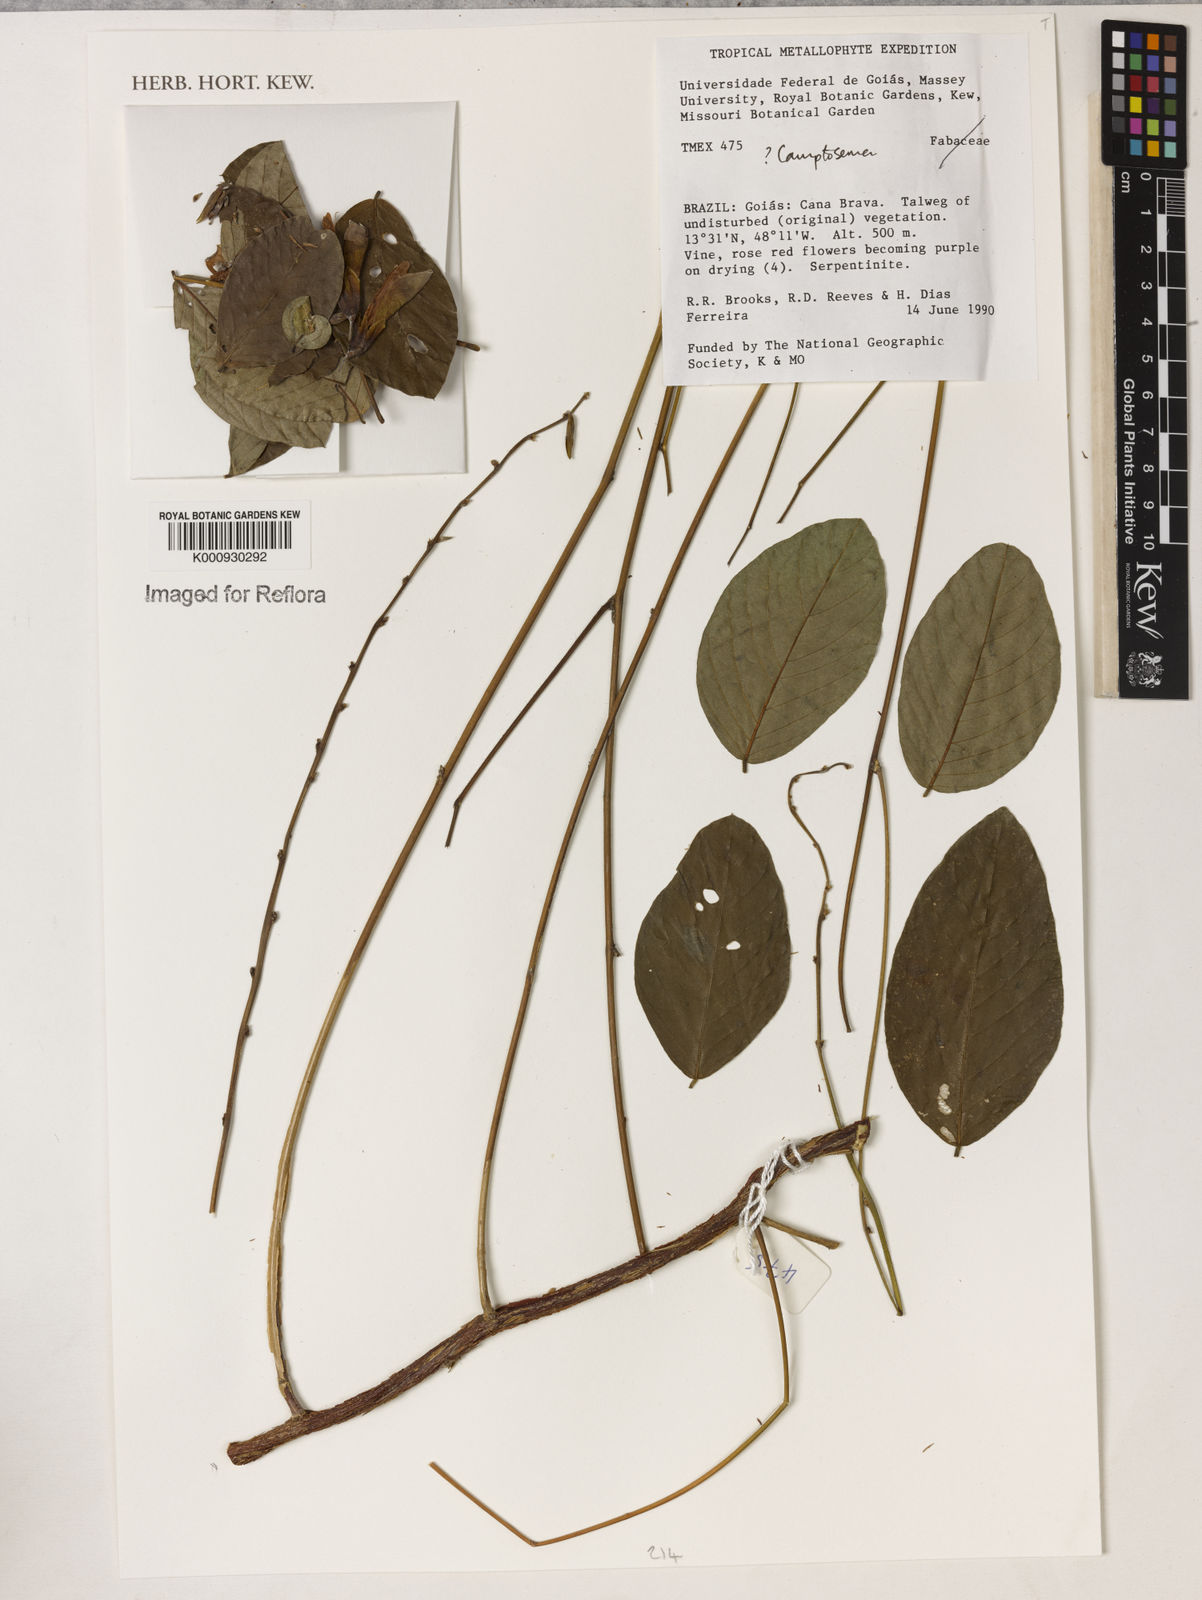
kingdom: Plantae
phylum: Tracheophyta
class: Magnoliopsida
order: Fabales
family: Fabaceae
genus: Camptosema
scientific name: Camptosema
